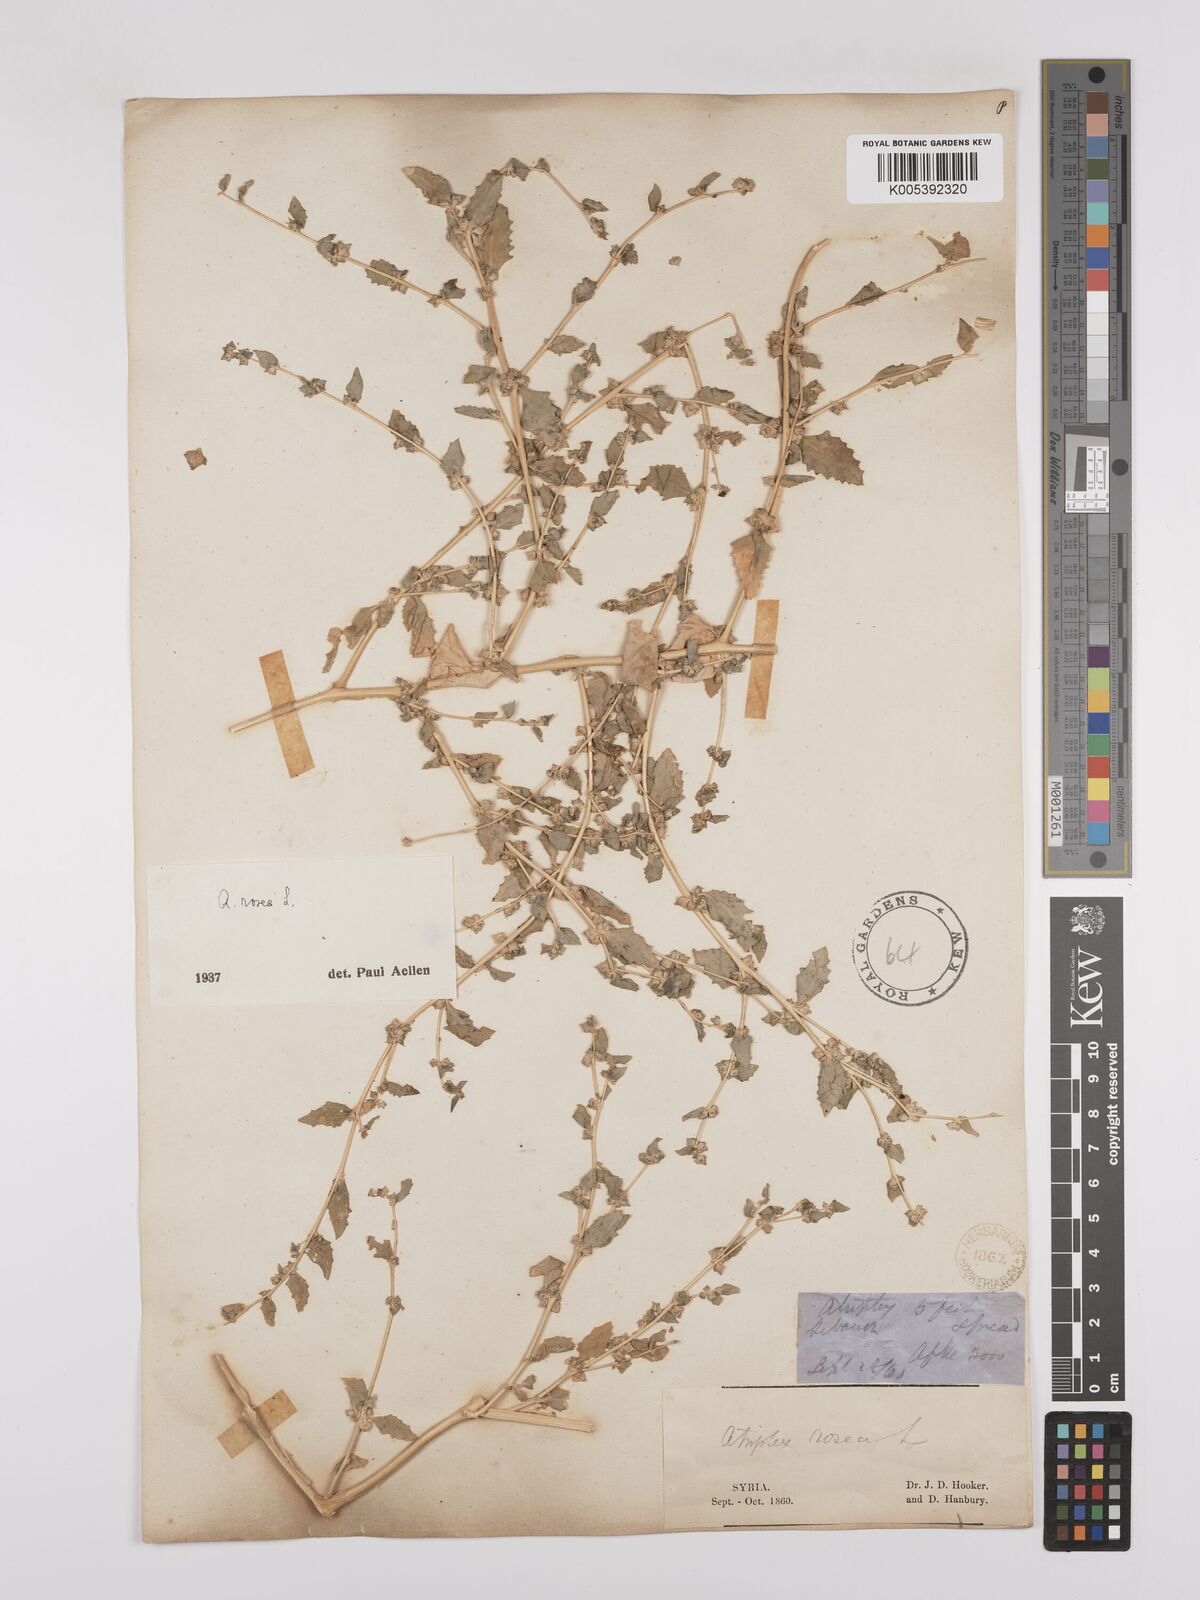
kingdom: Plantae
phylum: Tracheophyta
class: Magnoliopsida
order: Caryophyllales
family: Amaranthaceae
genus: Atriplex
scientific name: Atriplex
